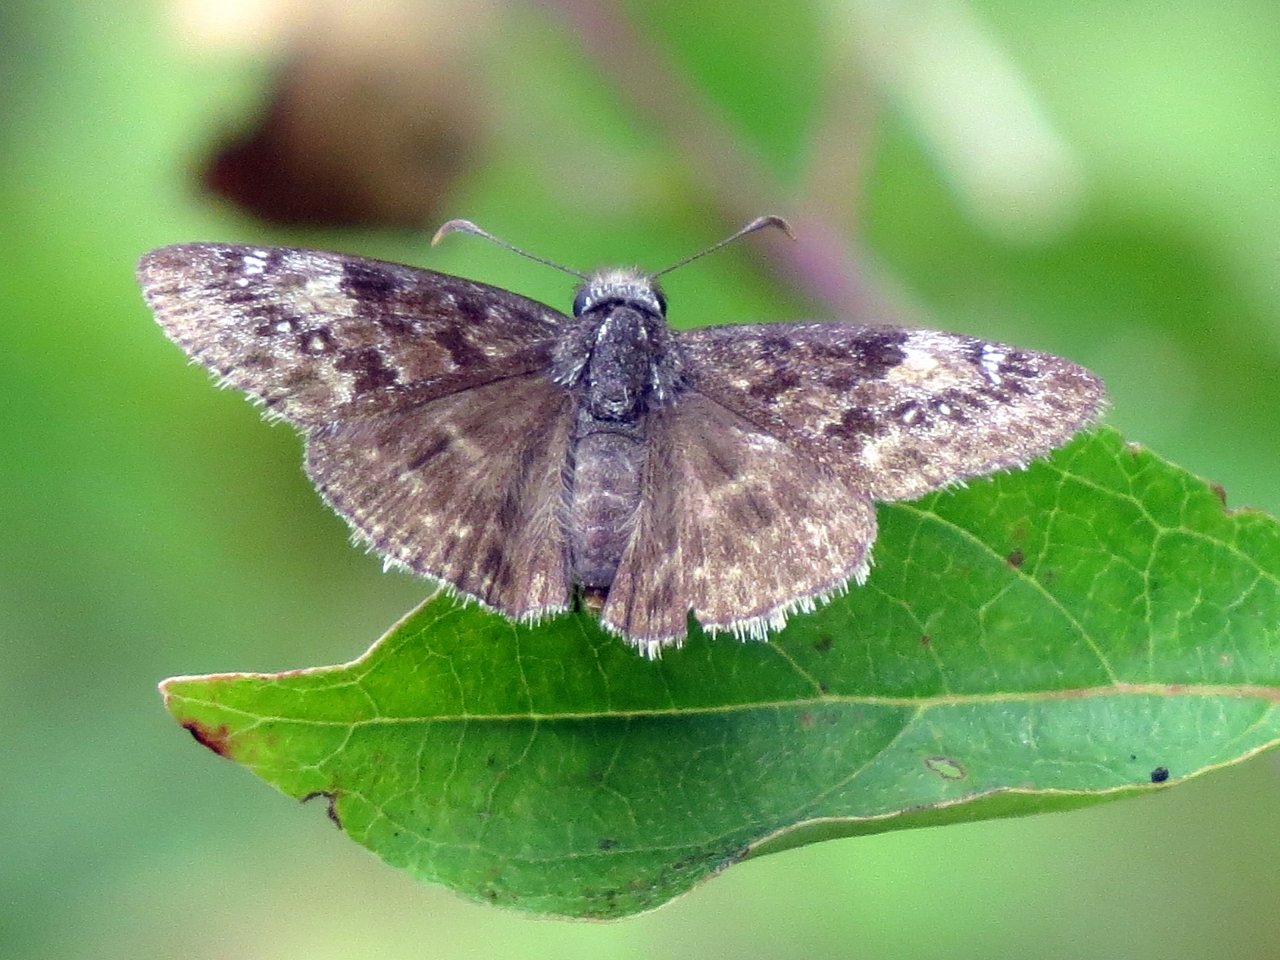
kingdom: Animalia
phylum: Arthropoda
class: Insecta
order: Lepidoptera
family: Hesperiidae
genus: Gesta
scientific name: Gesta
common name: Wild Indigo Duskywing
